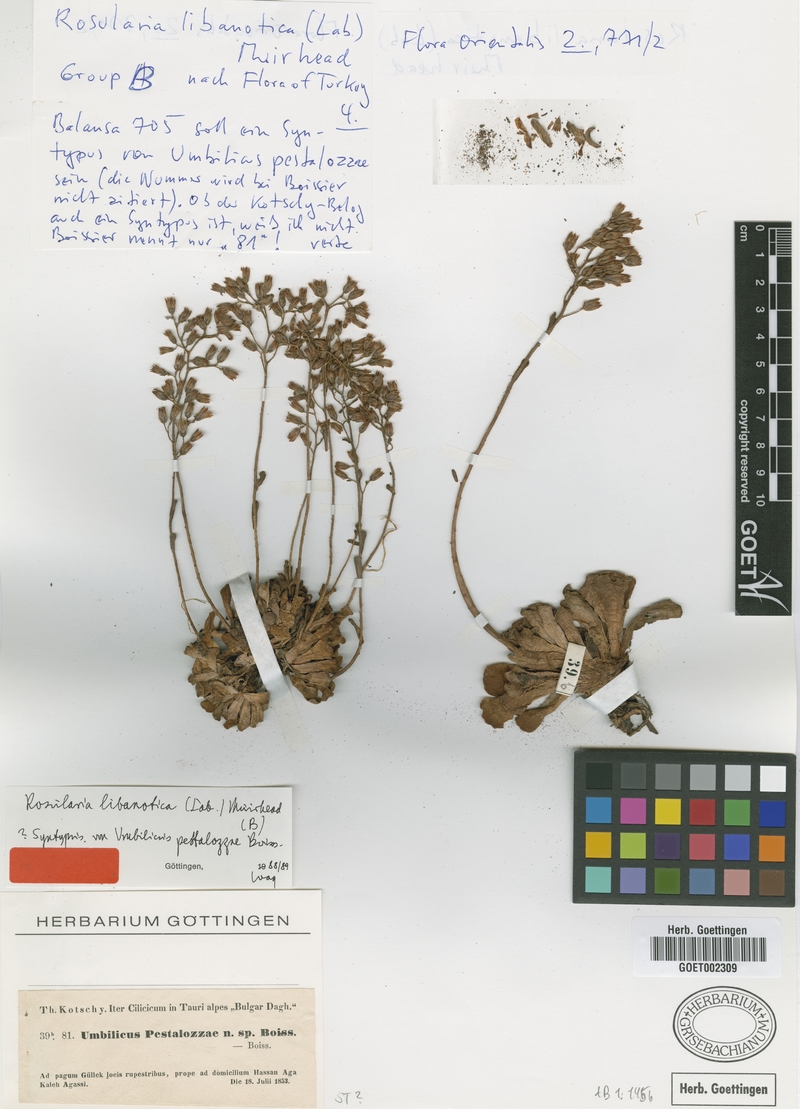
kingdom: Plantae
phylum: Tracheophyta
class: Magnoliopsida
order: Saxifragales
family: Crassulaceae
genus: Rosularia
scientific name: Rosularia sempervivum
